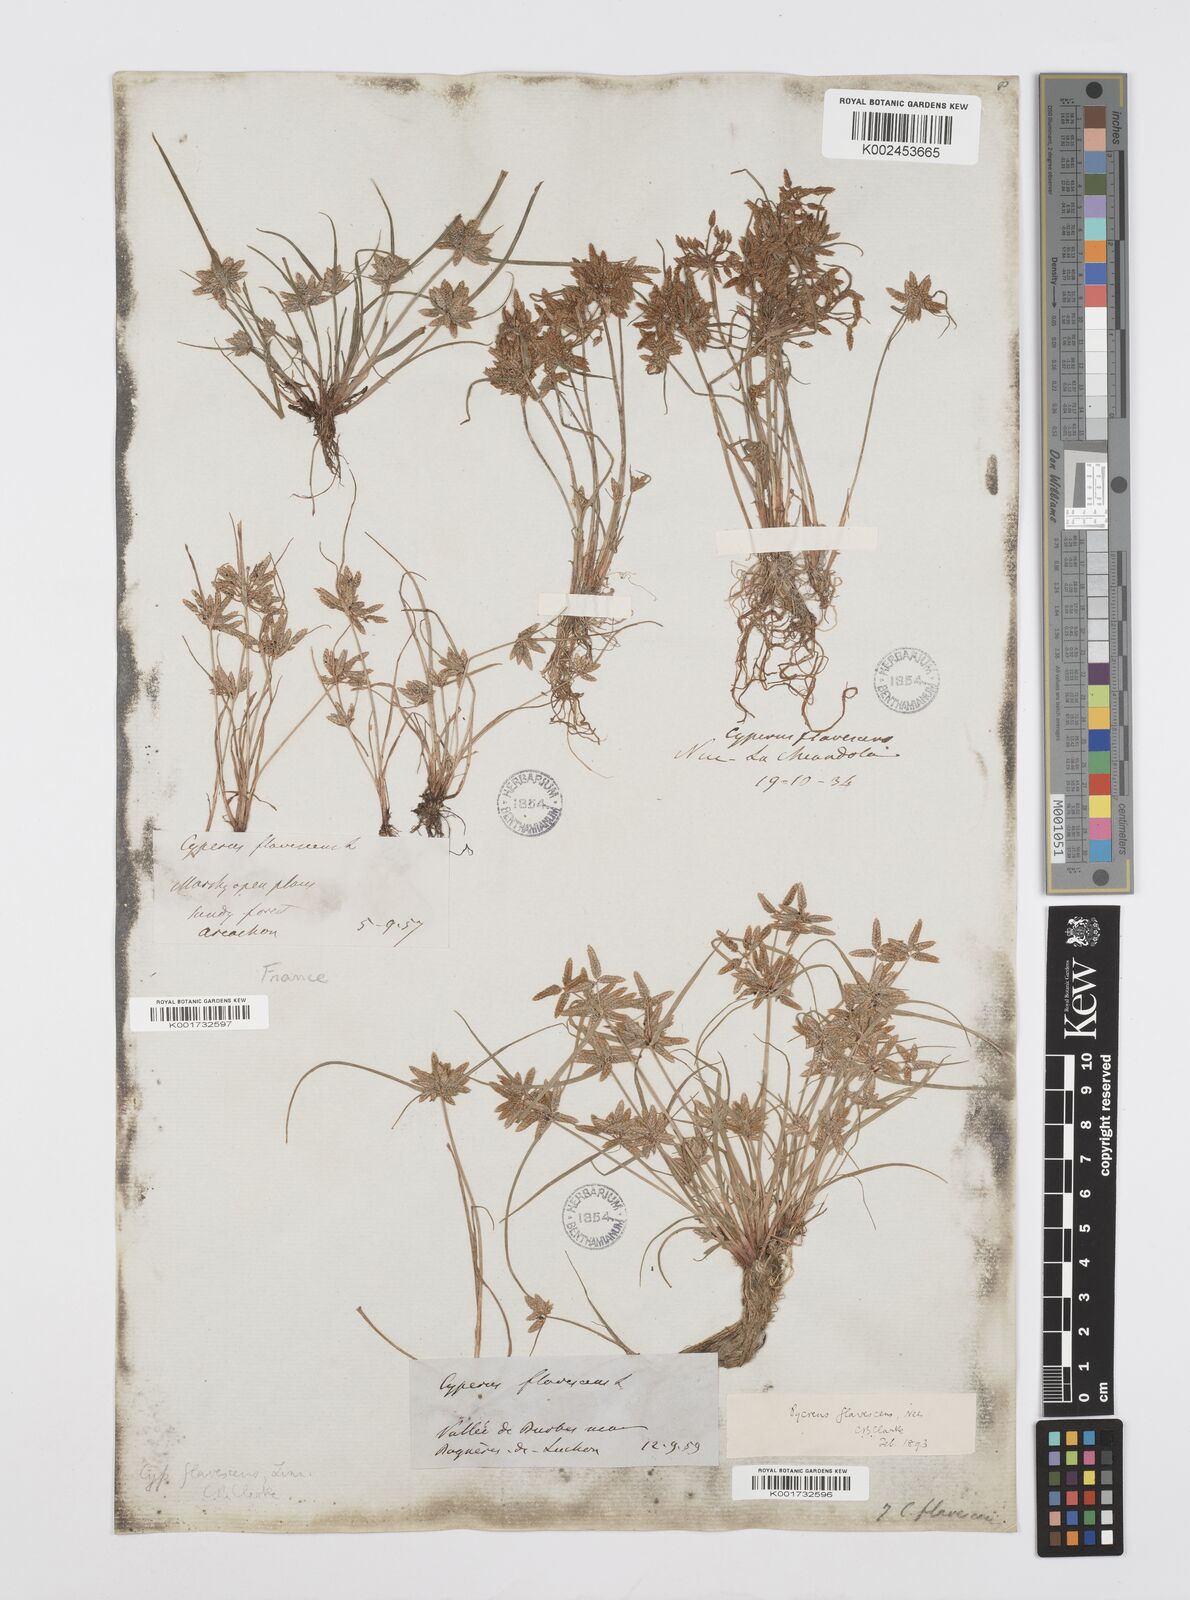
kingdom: Plantae
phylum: Tracheophyta
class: Liliopsida
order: Poales
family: Cyperaceae
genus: Cyperus
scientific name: Cyperus flavescens
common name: Yellow galingale
